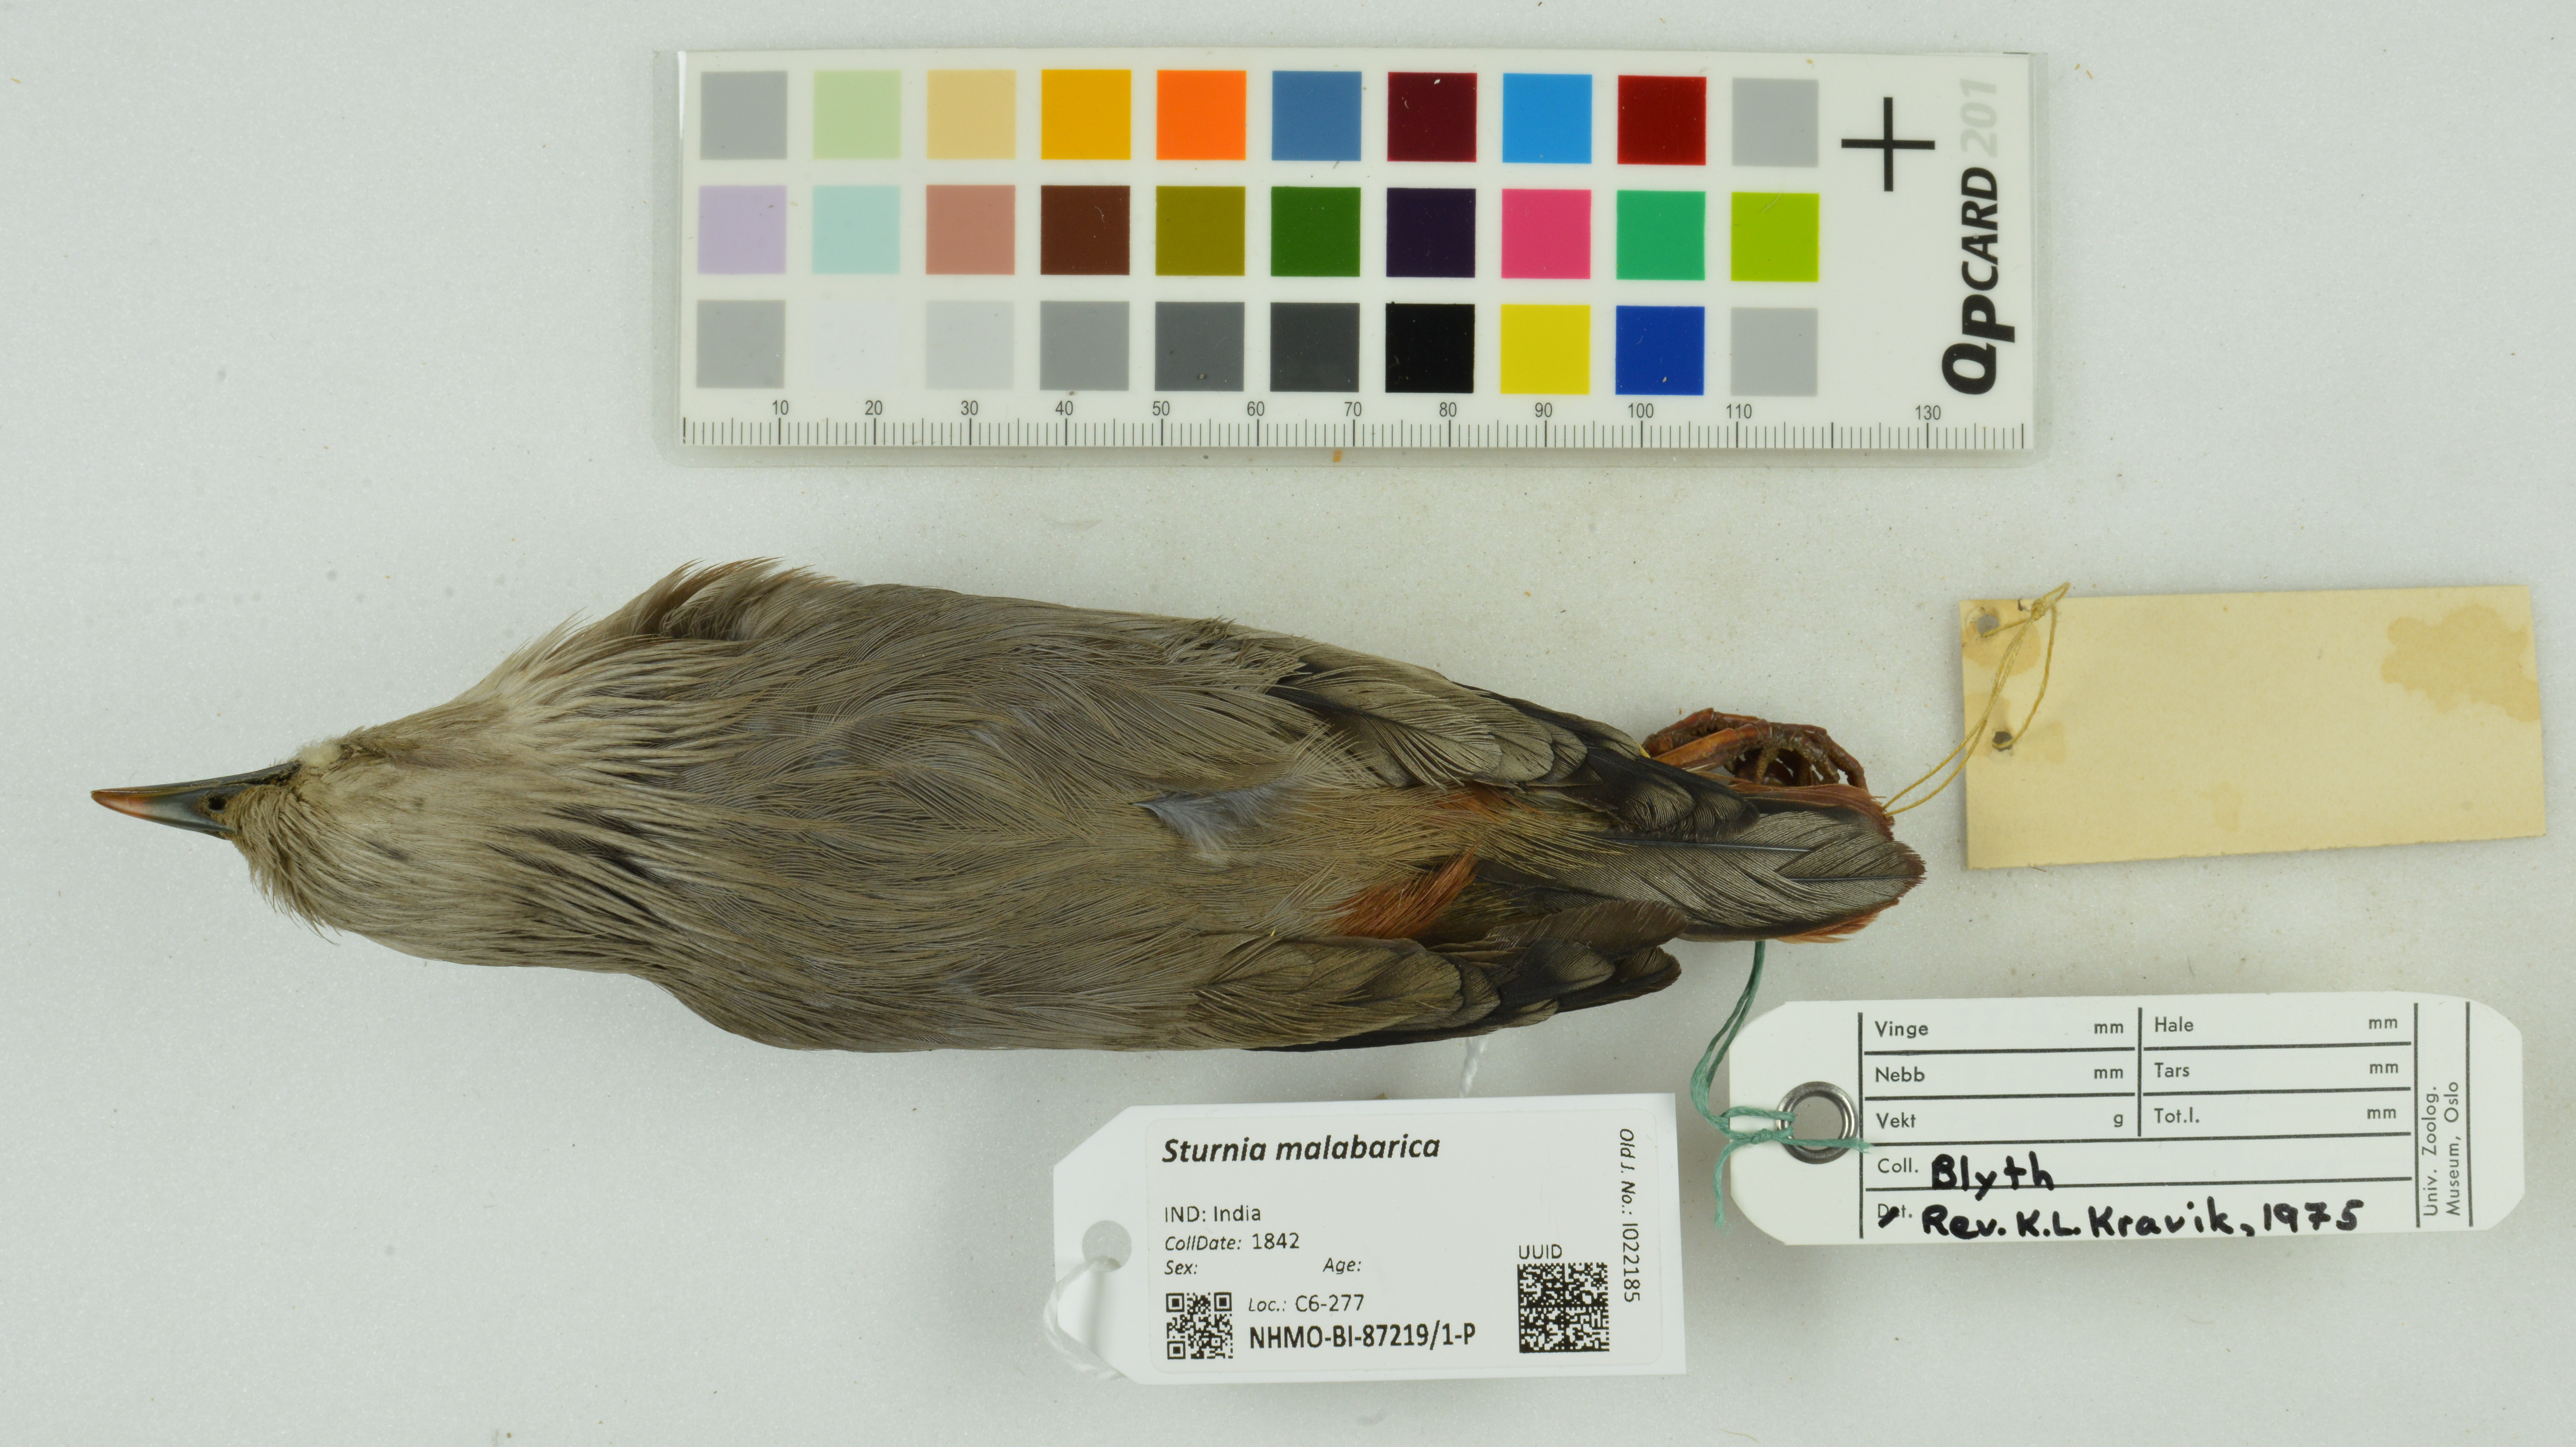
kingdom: Animalia
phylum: Chordata
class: Aves
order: Passeriformes
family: Sturnidae
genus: Sturnia
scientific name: Sturnia malabarica
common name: Chestnut-tailed starling
